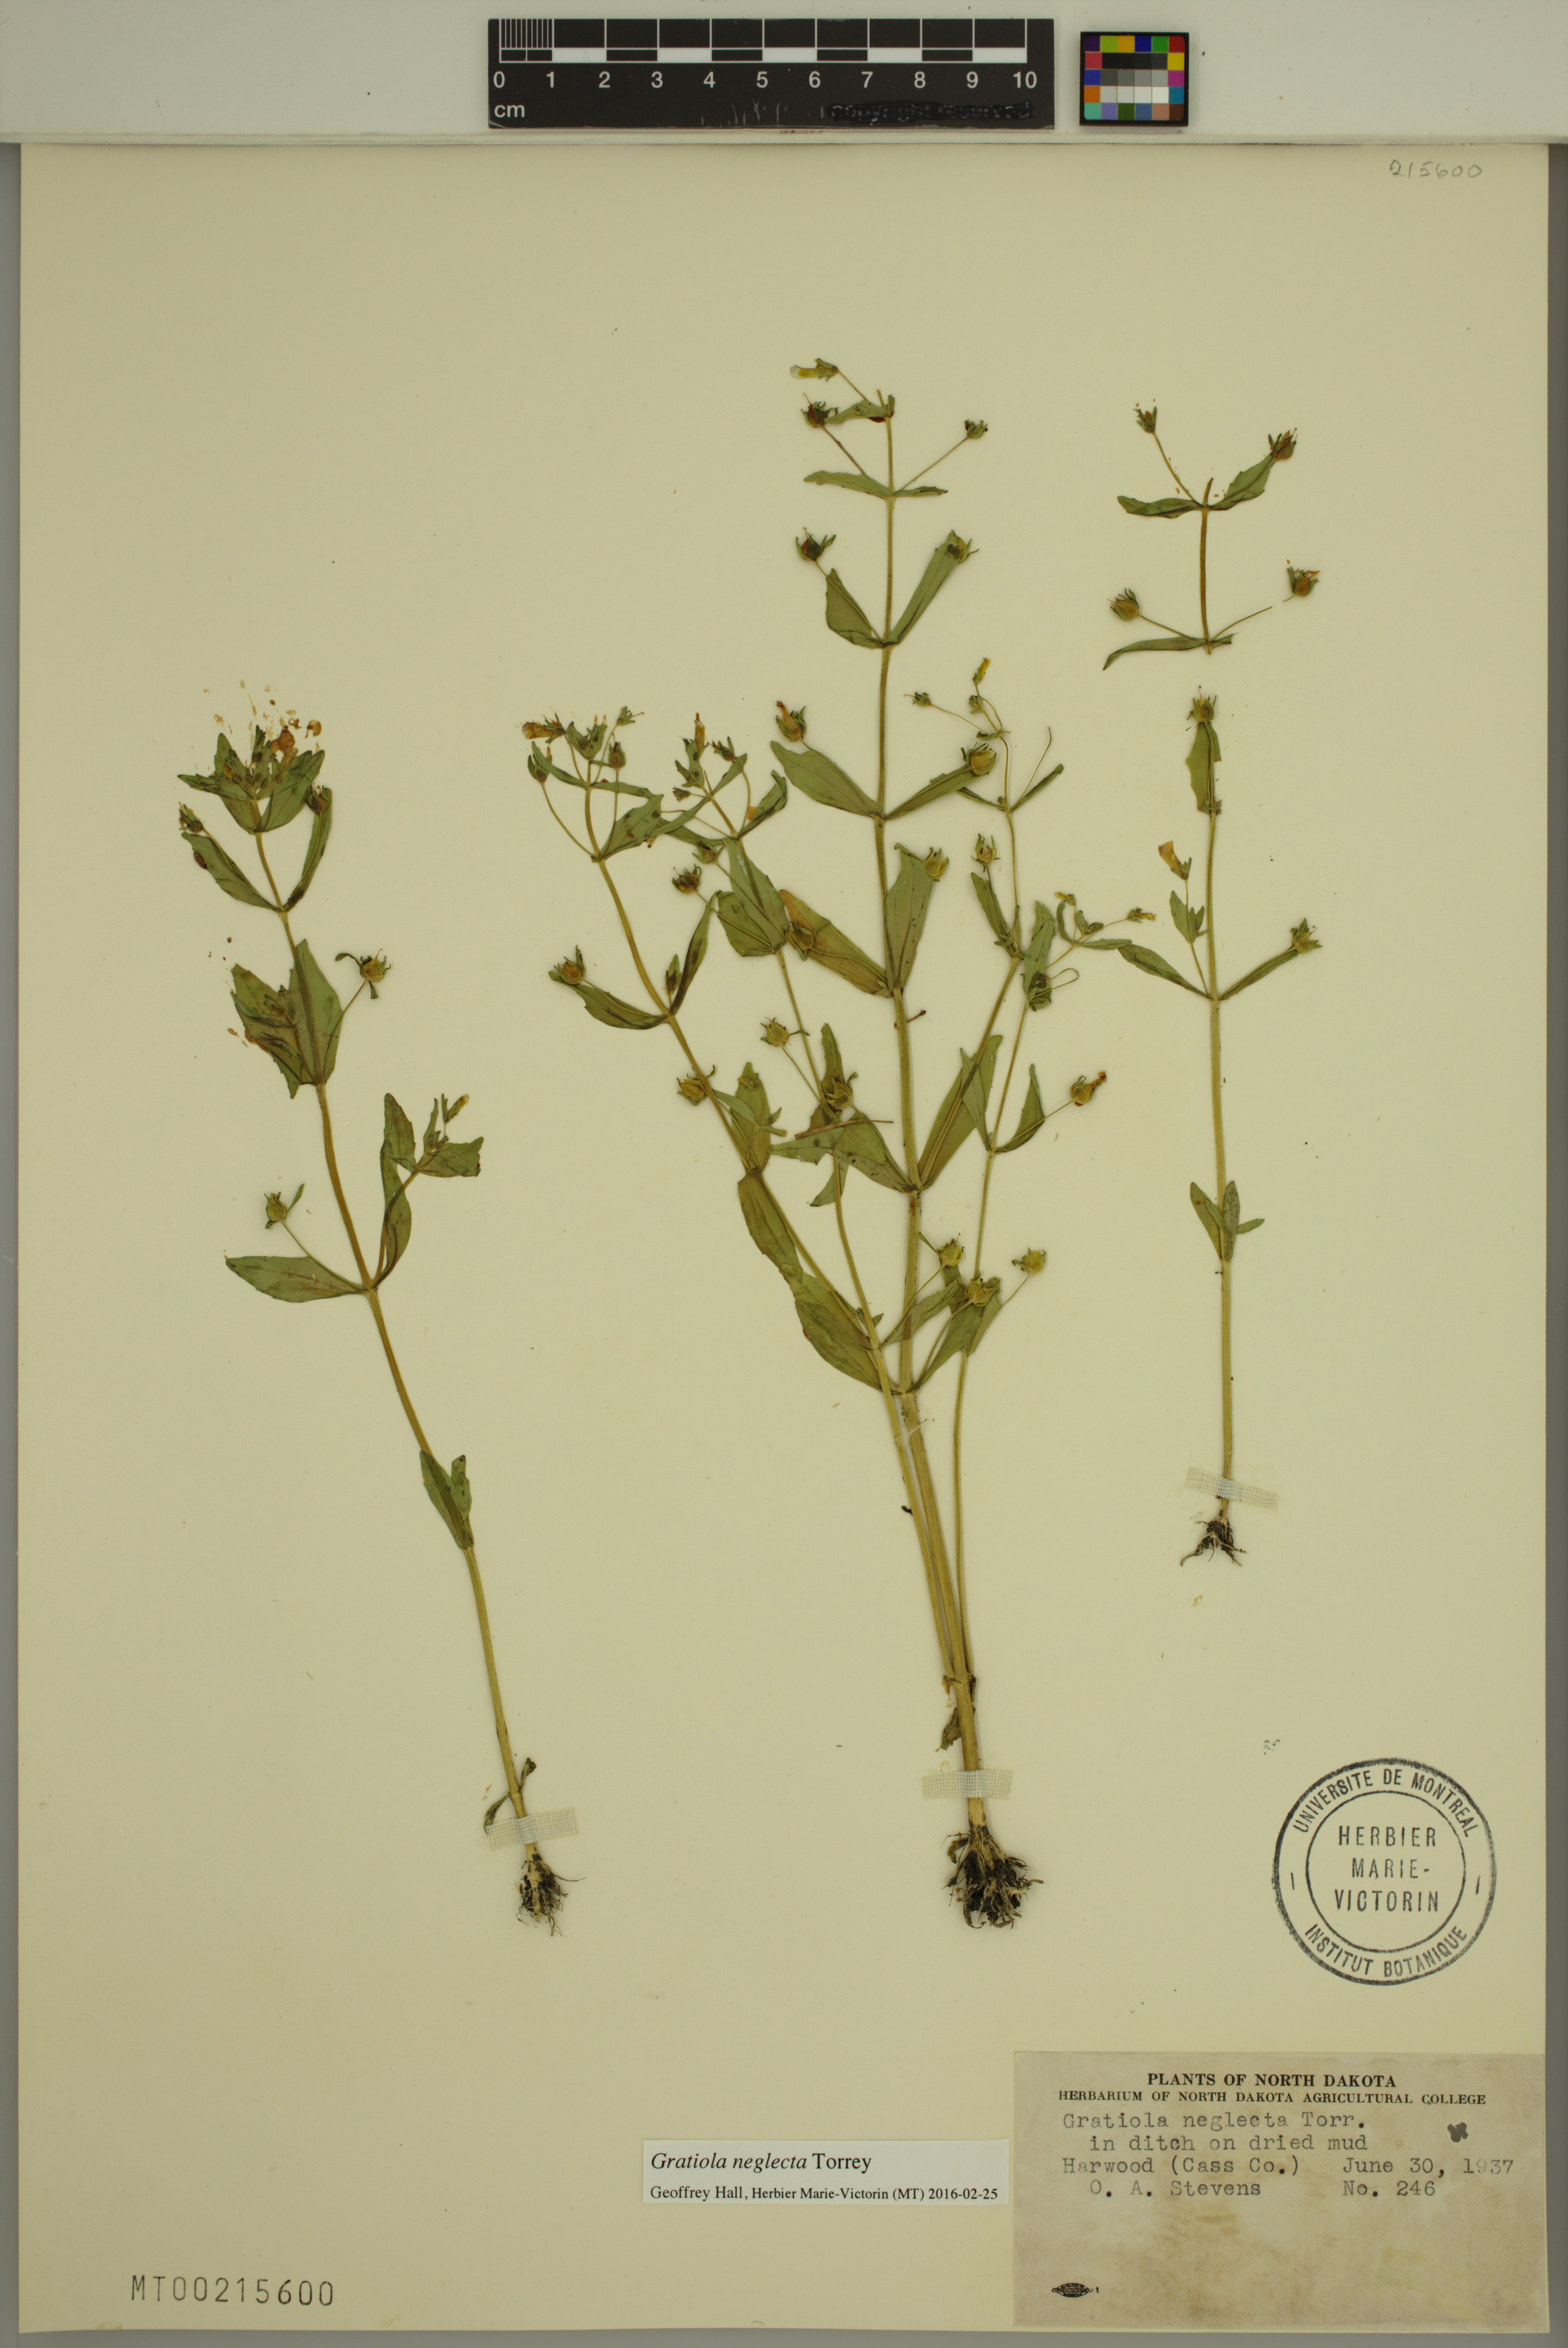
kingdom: Plantae
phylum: Tracheophyta
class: Magnoliopsida
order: Lamiales
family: Plantaginaceae
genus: Gratiola
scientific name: Gratiola neglecta
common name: American hedge-hyssop
